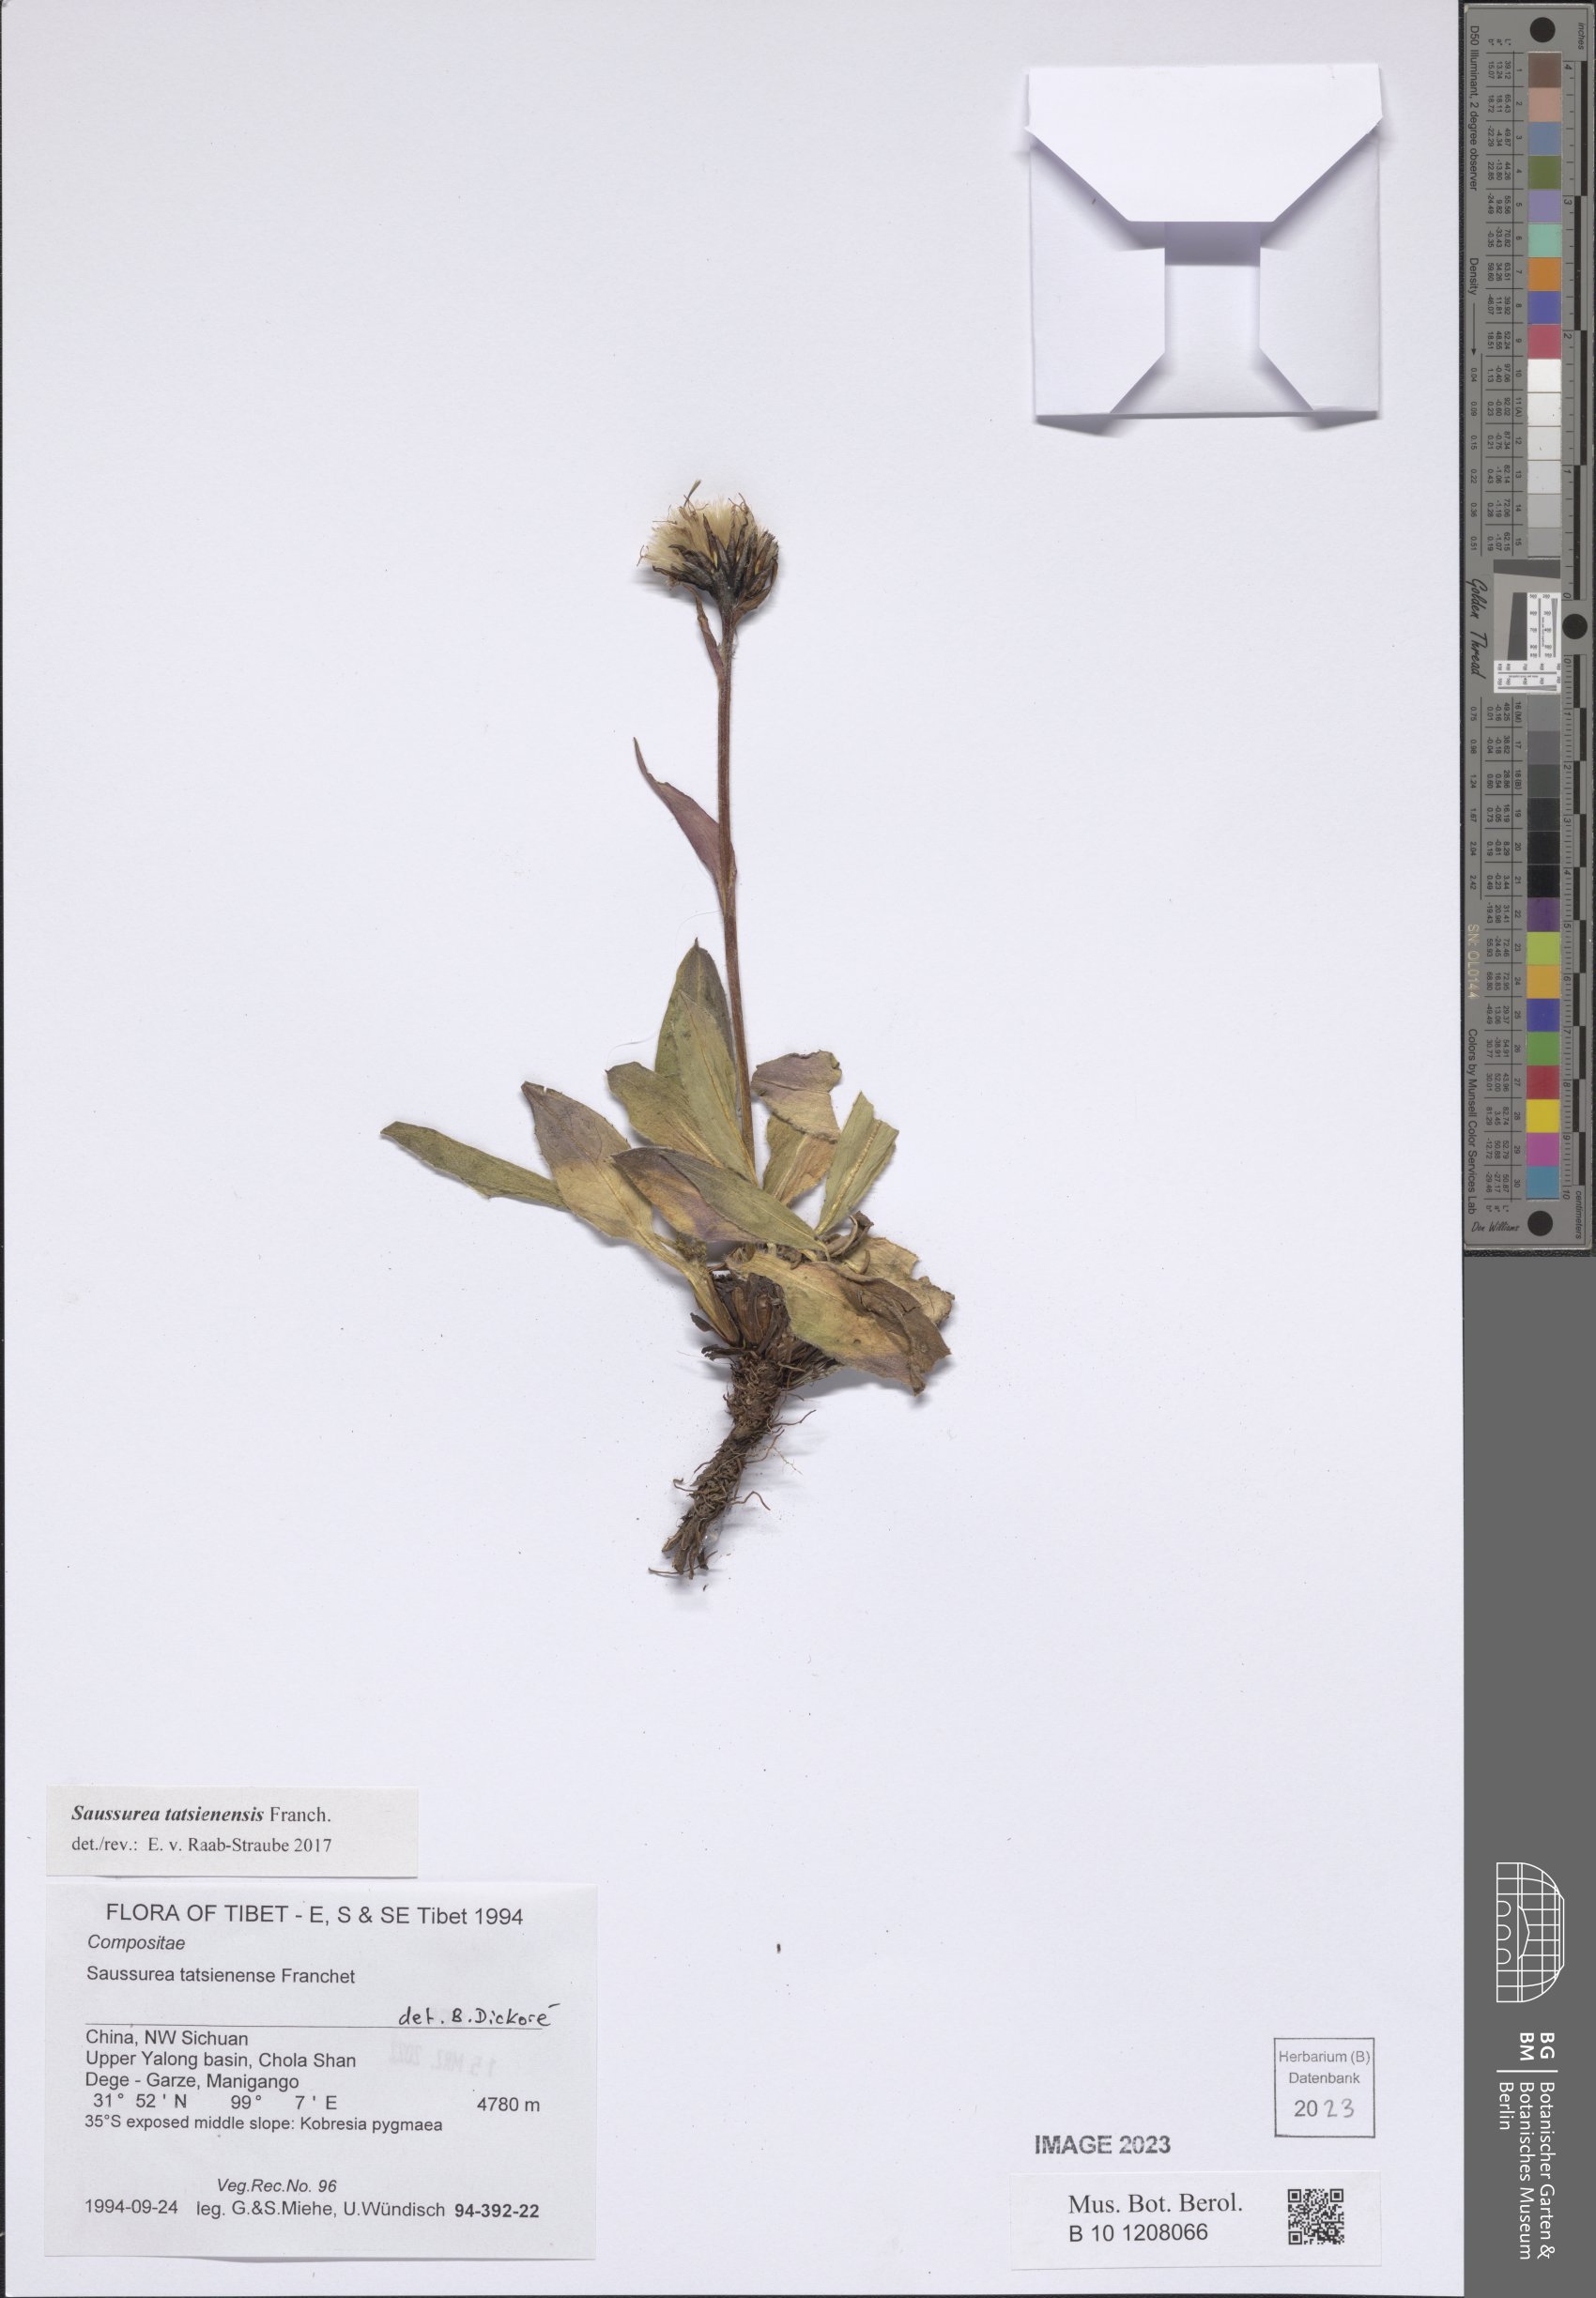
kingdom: Plantae
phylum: Tracheophyta
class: Magnoliopsida
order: Asterales
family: Asteraceae
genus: Saussurea
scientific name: Saussurea tatsienensis
